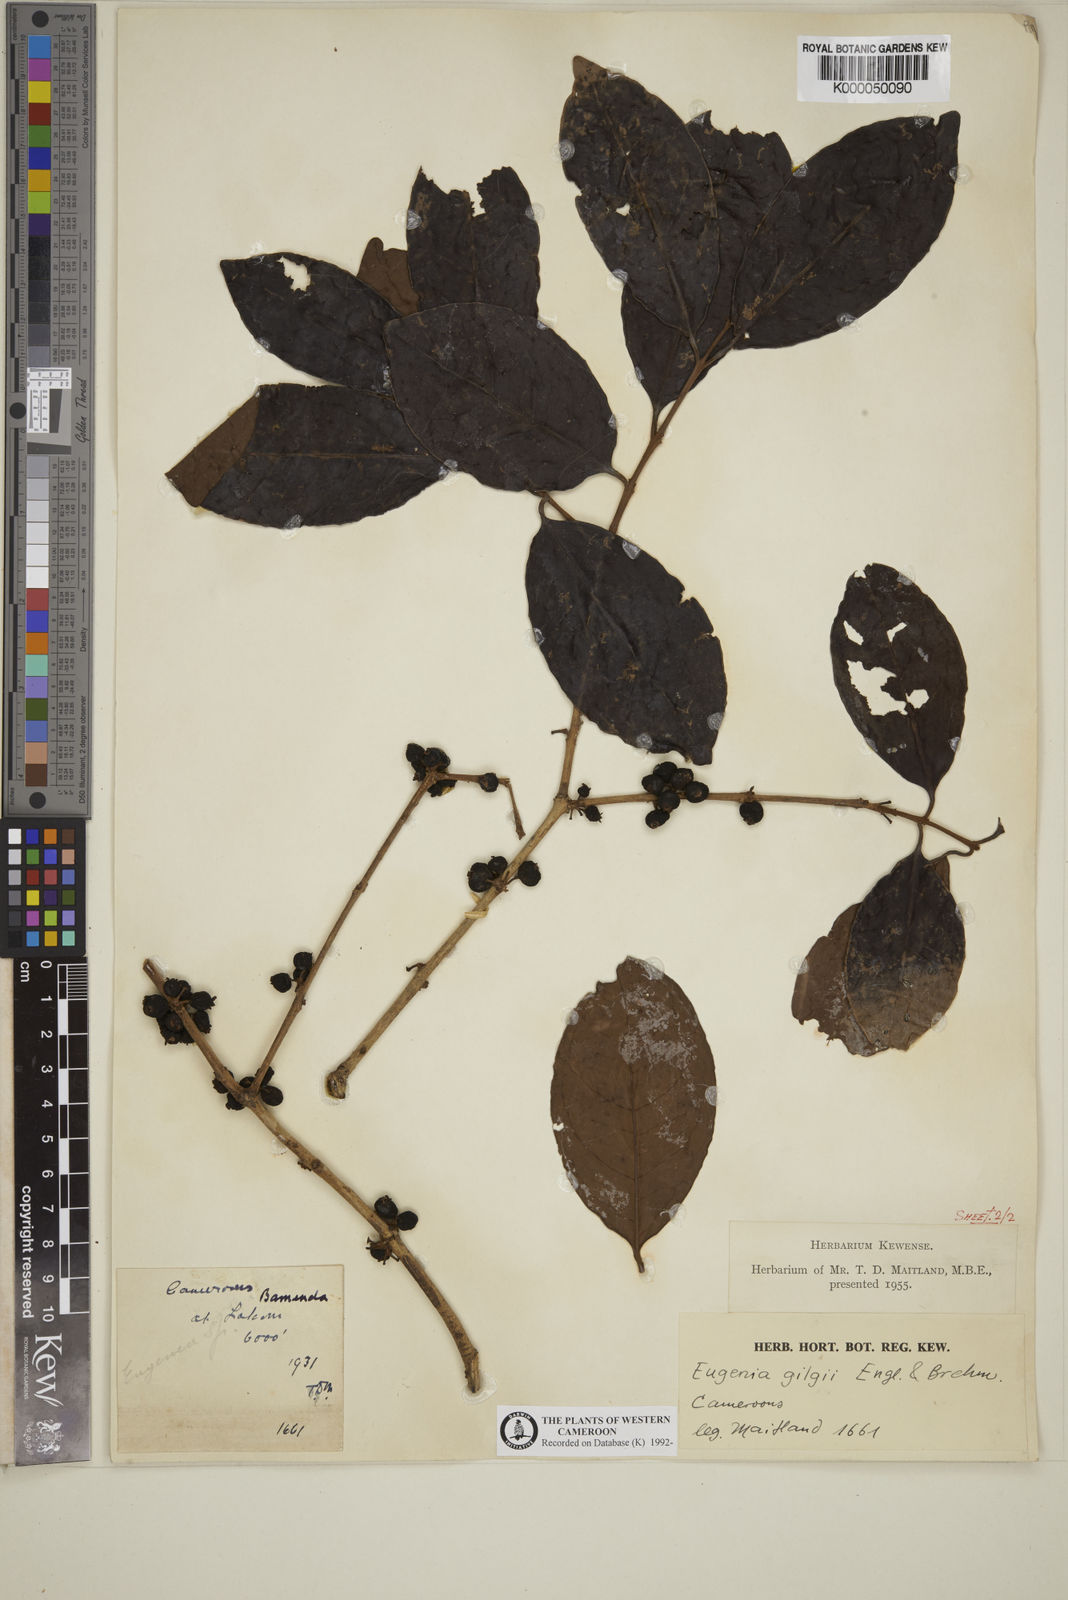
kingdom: Plantae
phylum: Tracheophyta
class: Magnoliopsida
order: Myrtales
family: Myrtaceae
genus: Eugenia
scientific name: Eugenia gilgii
